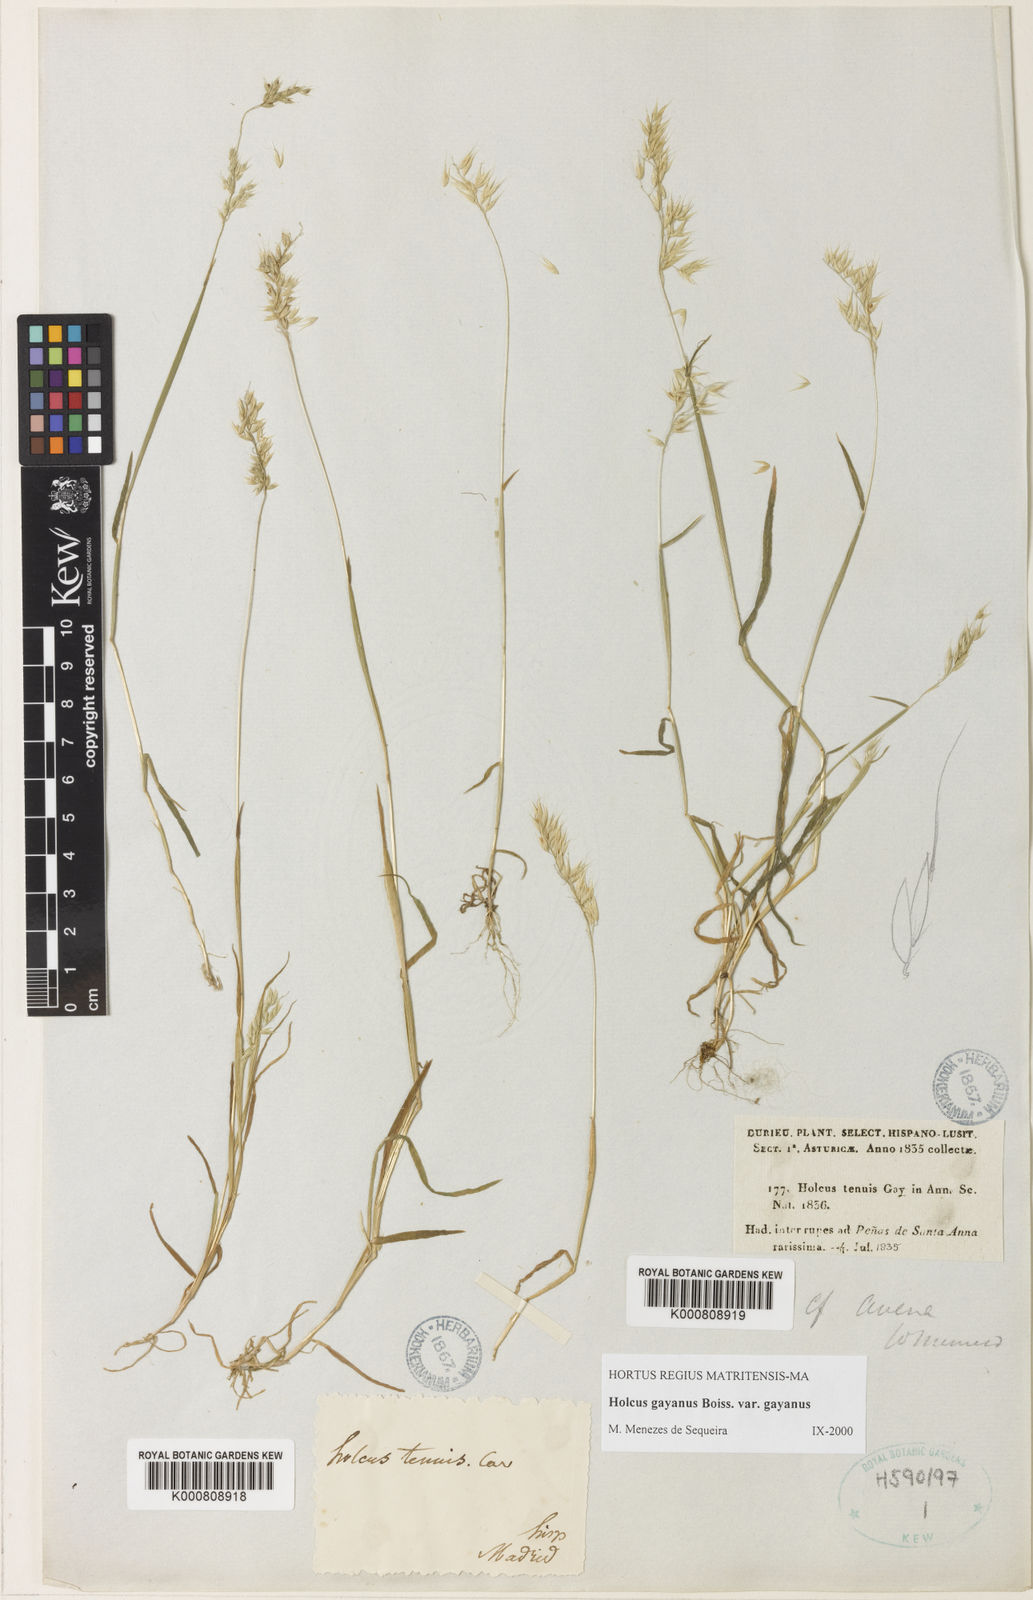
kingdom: Plantae
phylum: Tracheophyta
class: Liliopsida
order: Poales
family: Poaceae
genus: Holcus
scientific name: Holcus mollis
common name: Creeping velvetgrass
